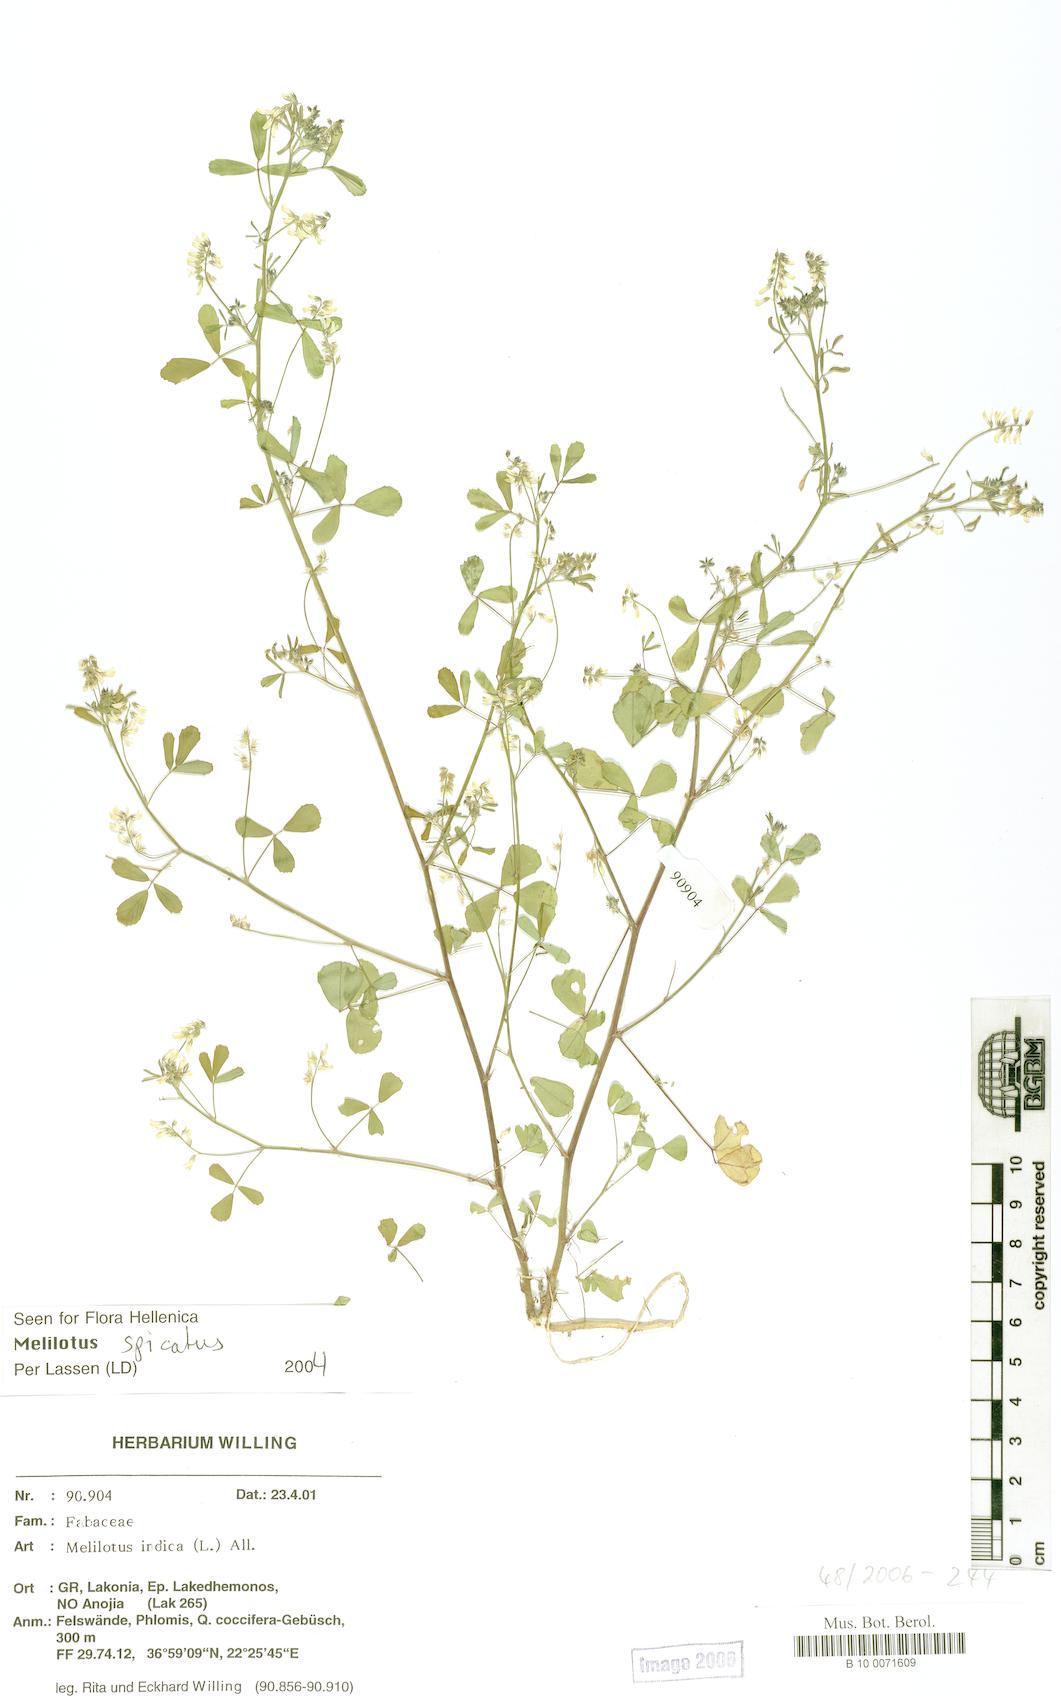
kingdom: Plantae
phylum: Tracheophyta
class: Magnoliopsida
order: Fabales
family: Fabaceae
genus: Melilotus
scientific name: Melilotus indicus
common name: Small melilot
